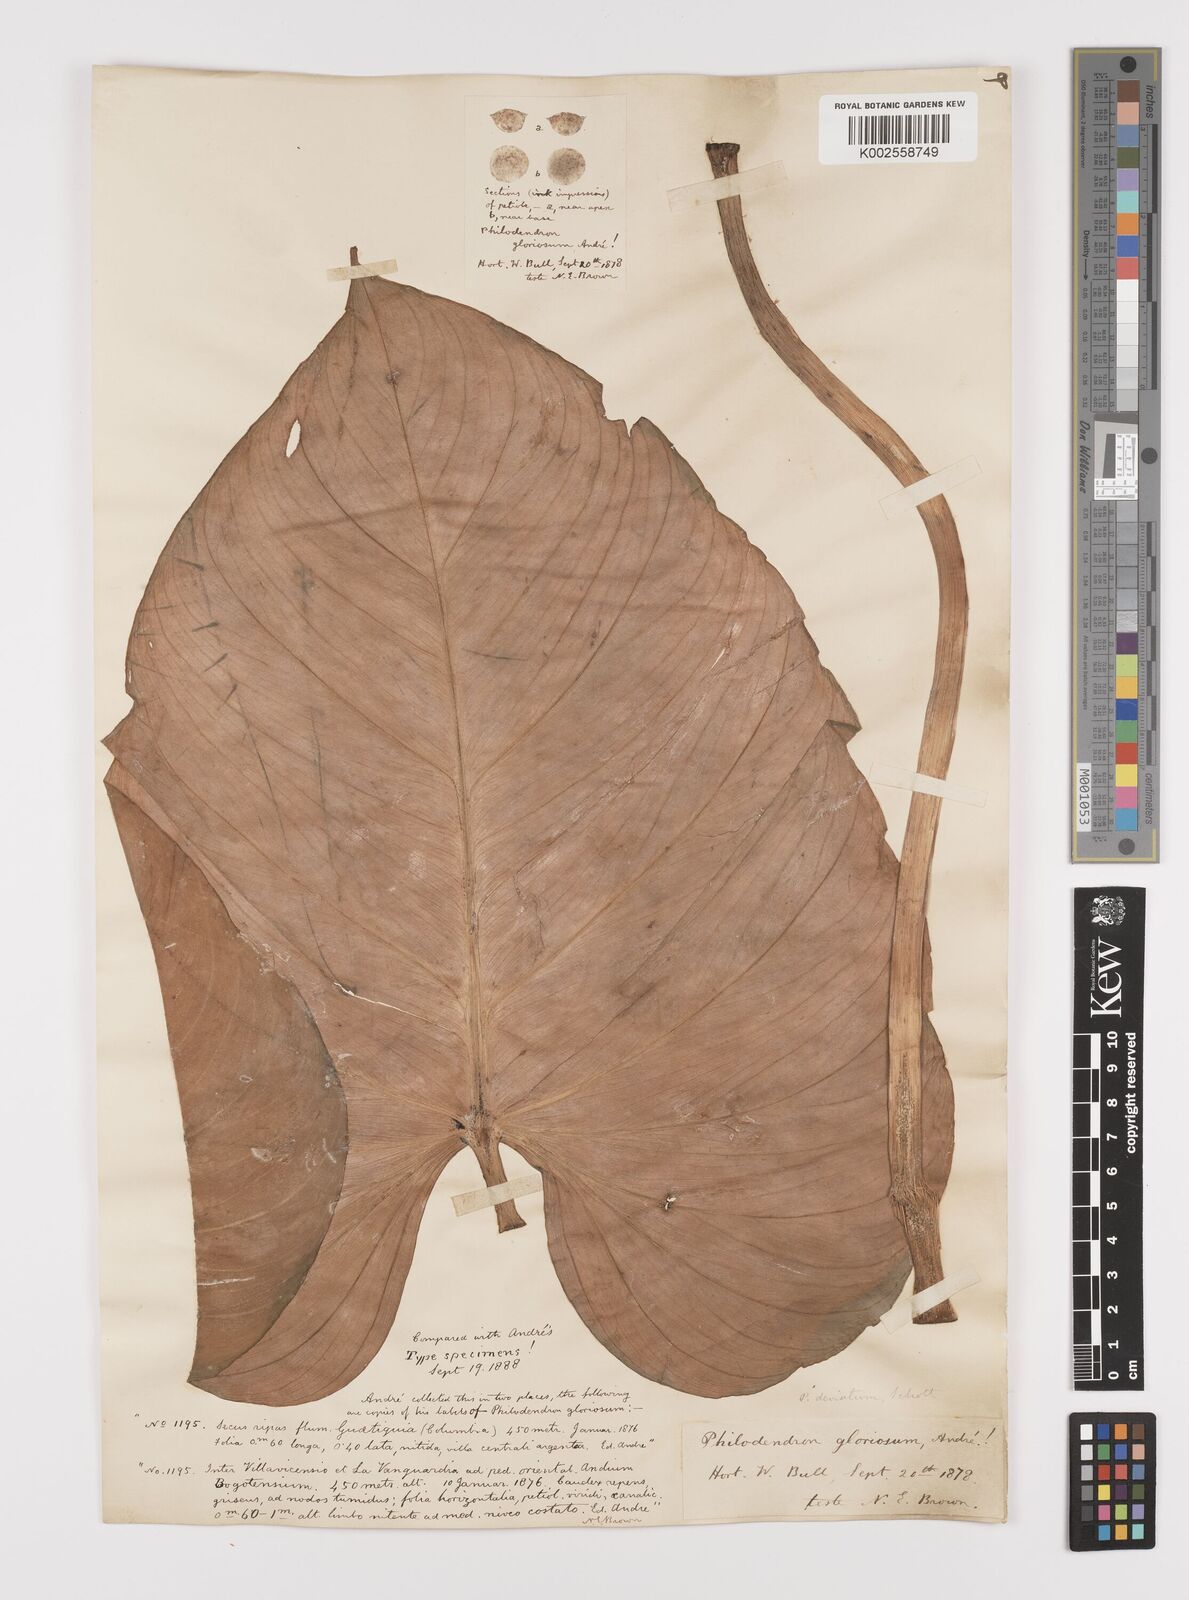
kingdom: Plantae
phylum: Tracheophyta
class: Liliopsida
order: Alismatales
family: Araceae
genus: Philodendron
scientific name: Philodendron jacquinii
